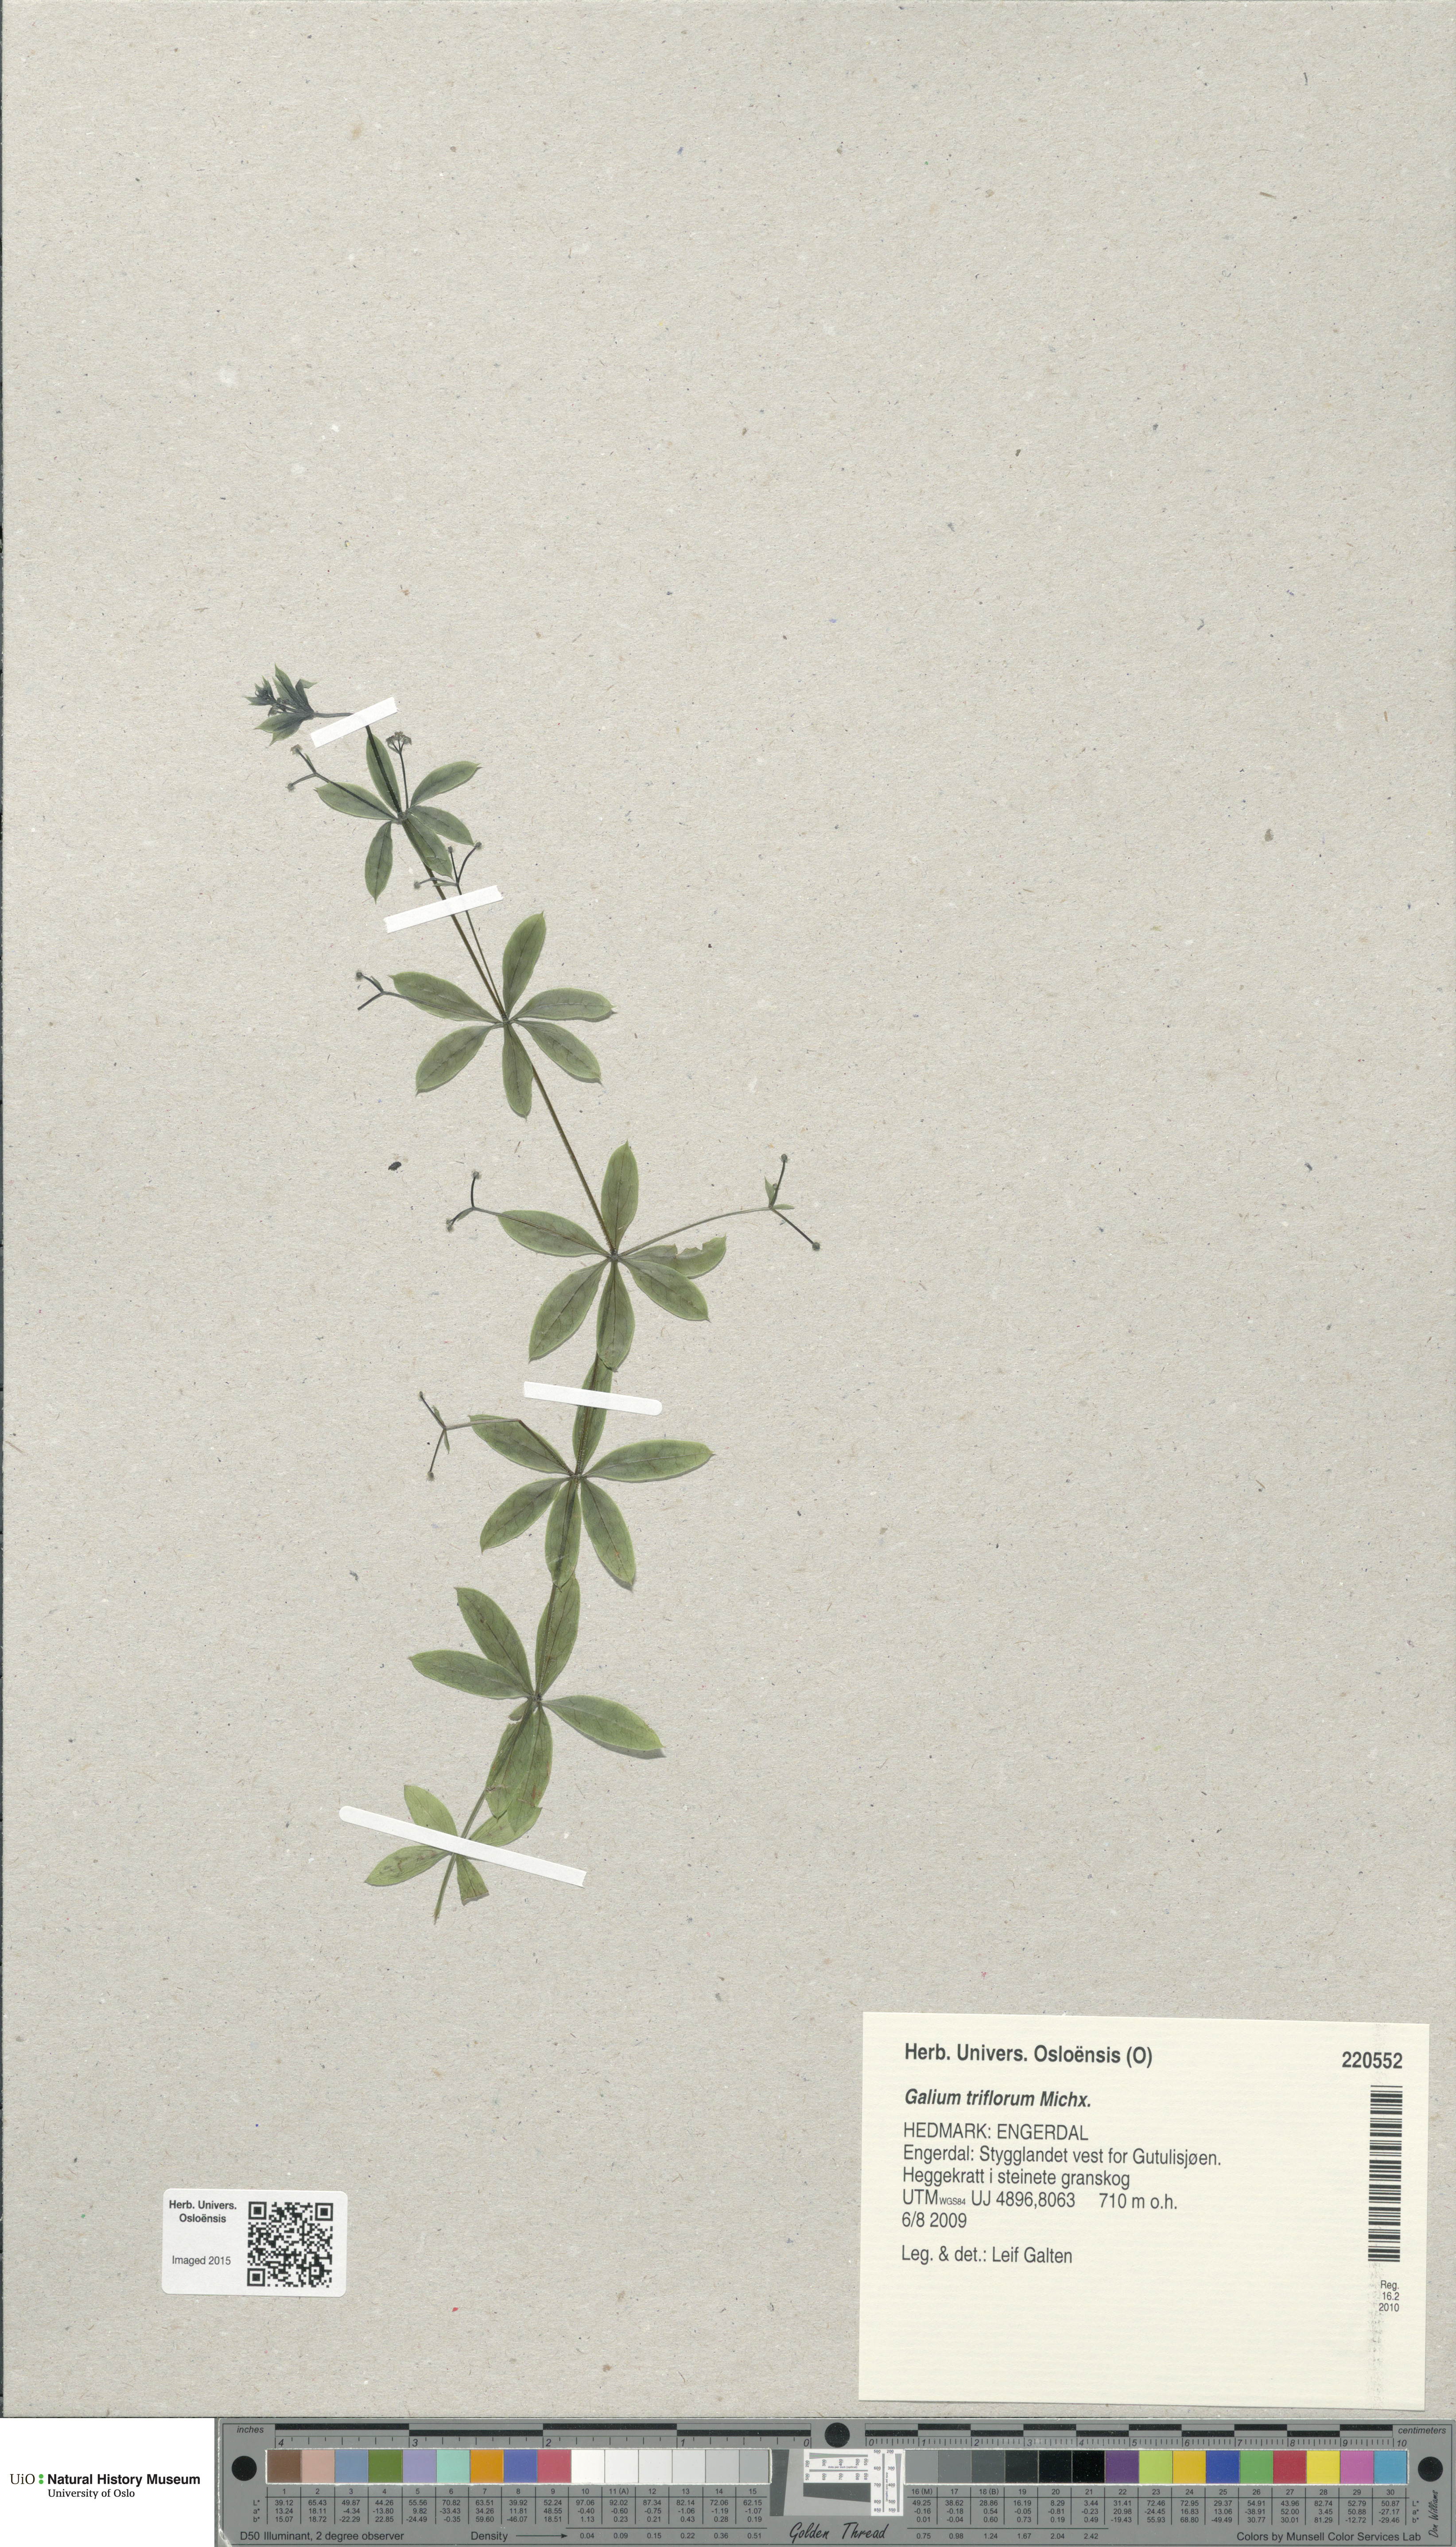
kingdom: Plantae
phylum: Tracheophyta
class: Magnoliopsida
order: Gentianales
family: Rubiaceae
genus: Galium
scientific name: Galium triflorum
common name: Fragrant bedstraw
